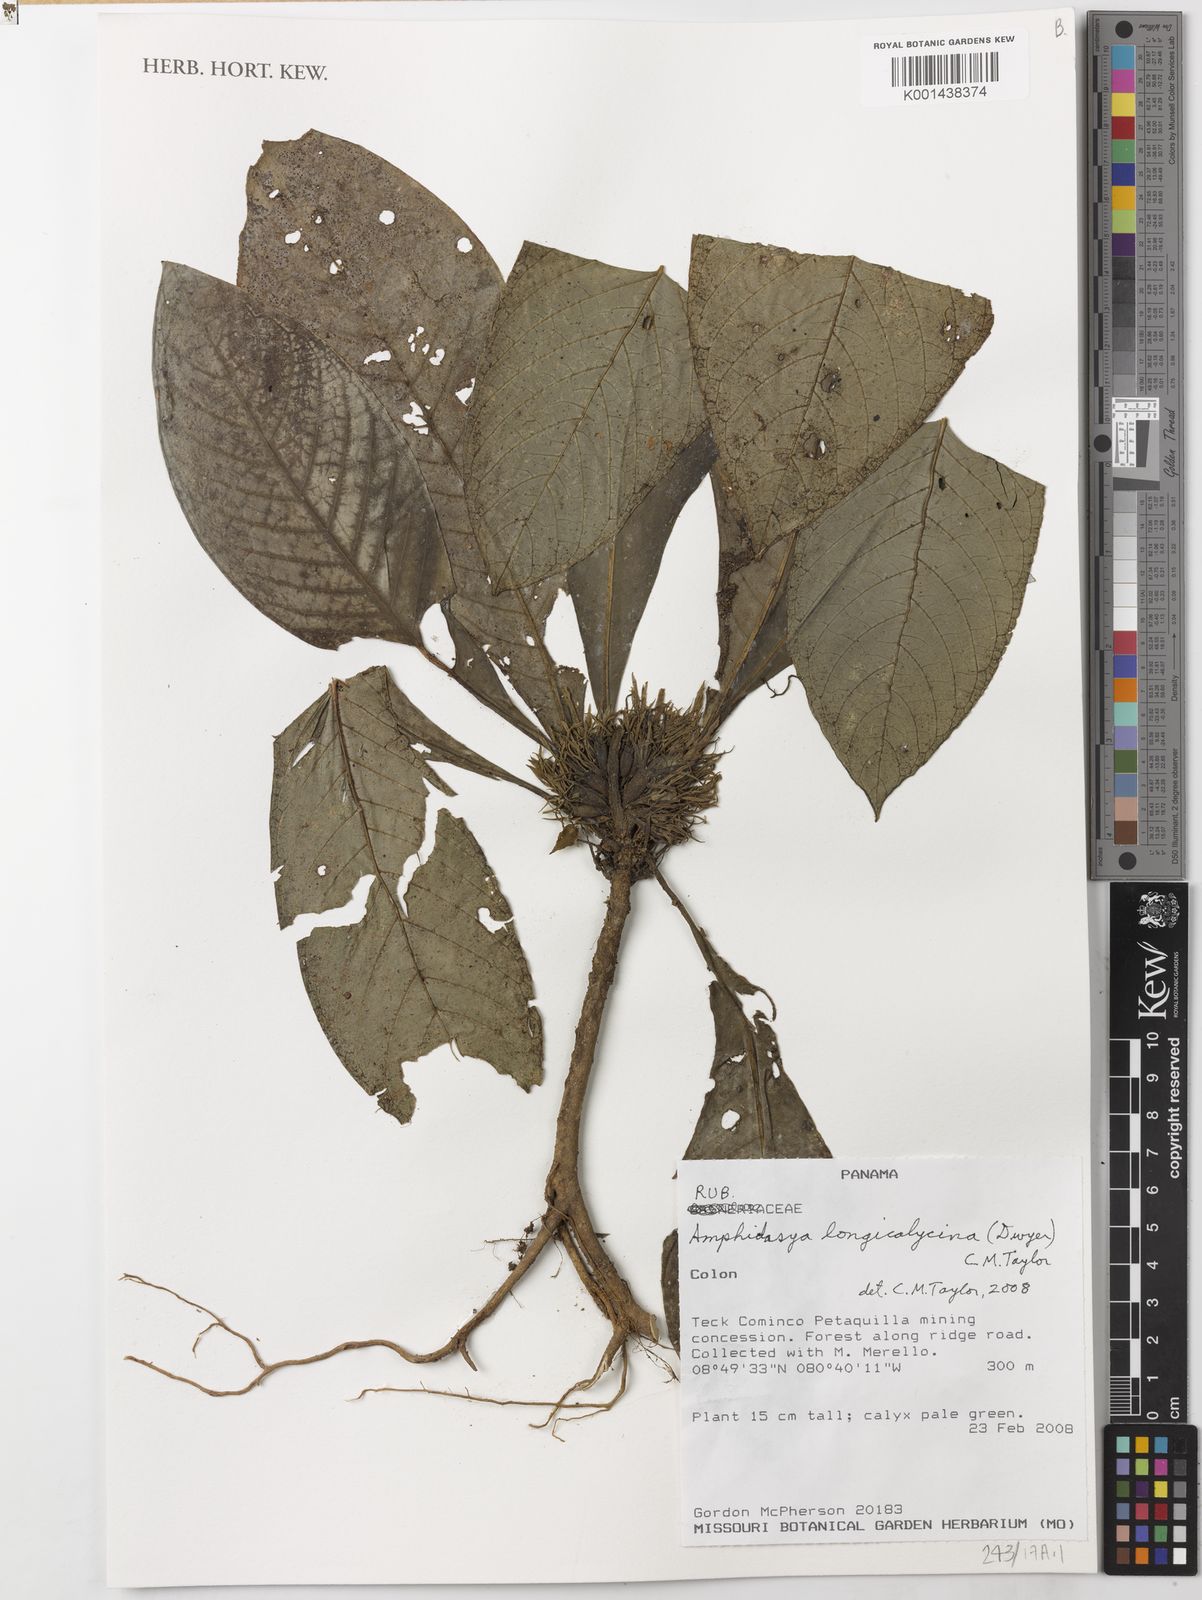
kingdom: Plantae
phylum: Tracheophyta
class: Magnoliopsida
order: Gentianales
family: Rubiaceae
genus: Amphidasya
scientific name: Amphidasya longicalycina
